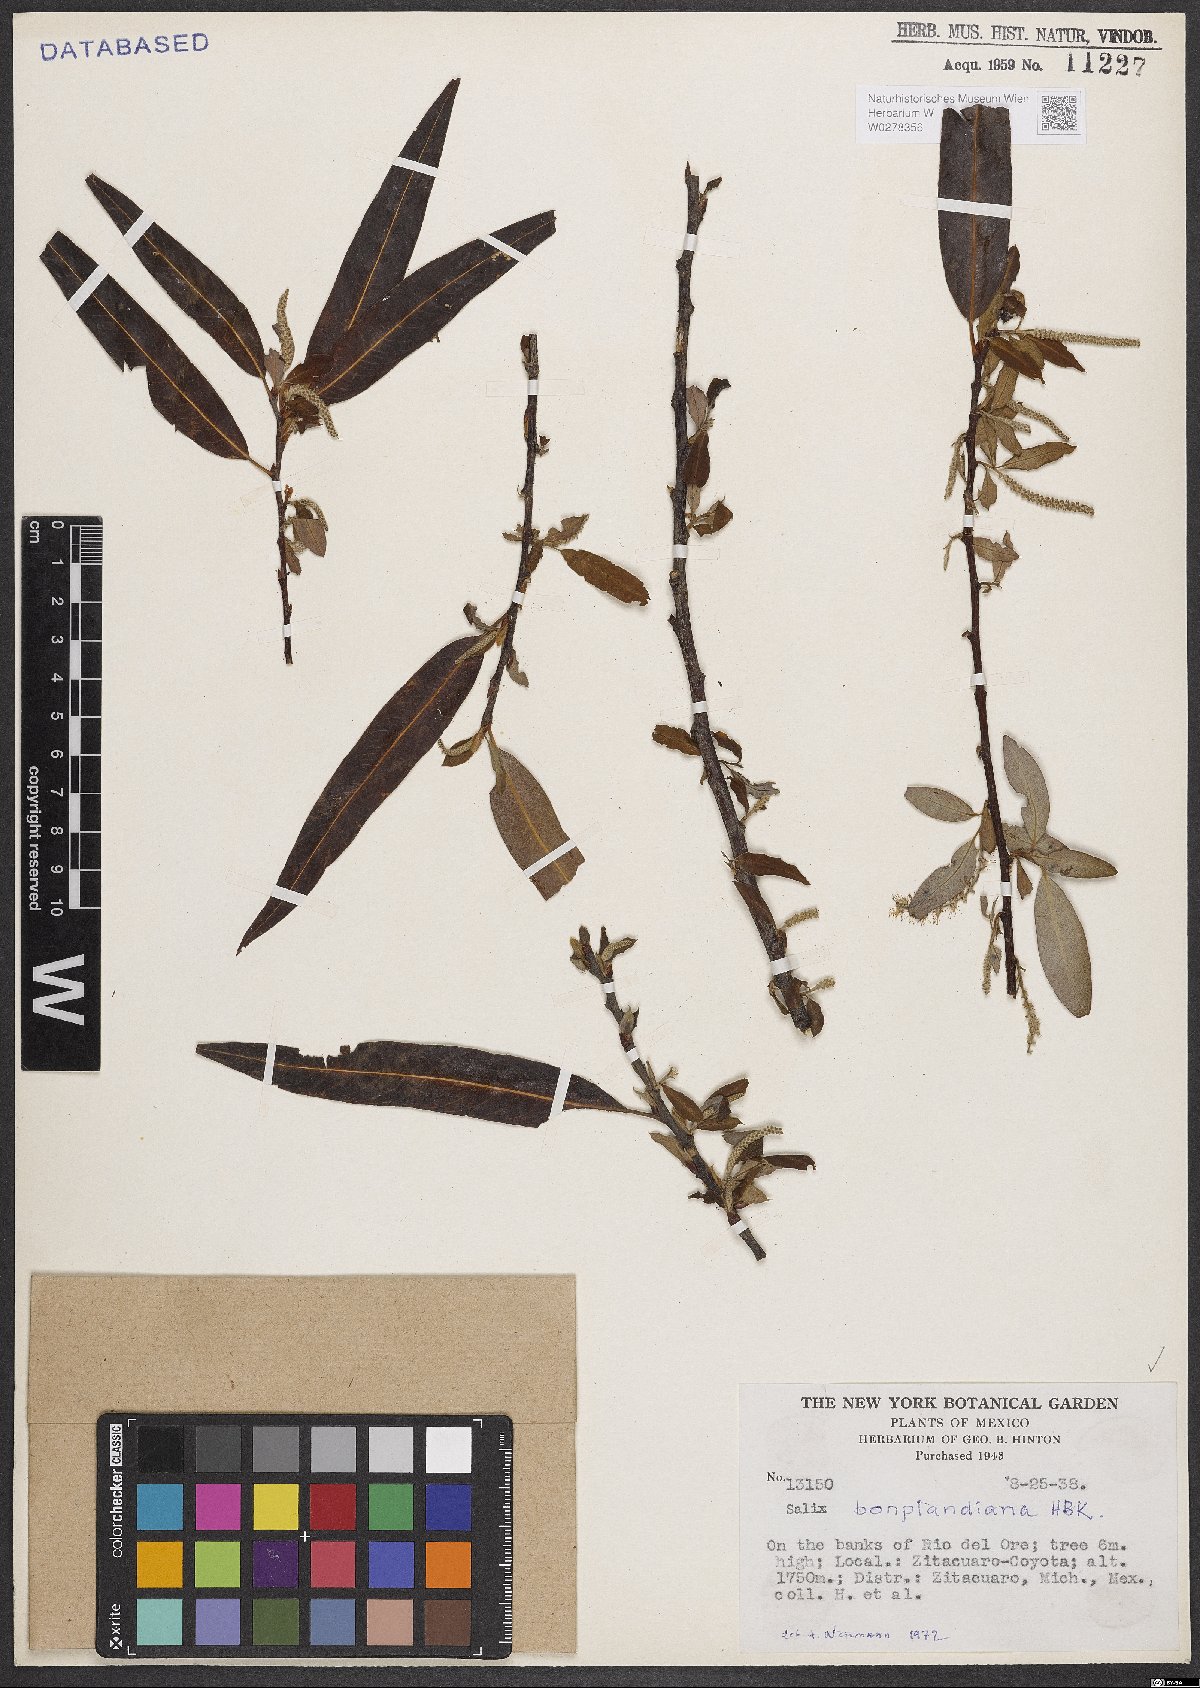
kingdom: Plantae
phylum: Tracheophyta
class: Magnoliopsida
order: Malpighiales
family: Salicaceae
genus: Salix
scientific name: Salix bonplandiana
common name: Bonpland’s willow
